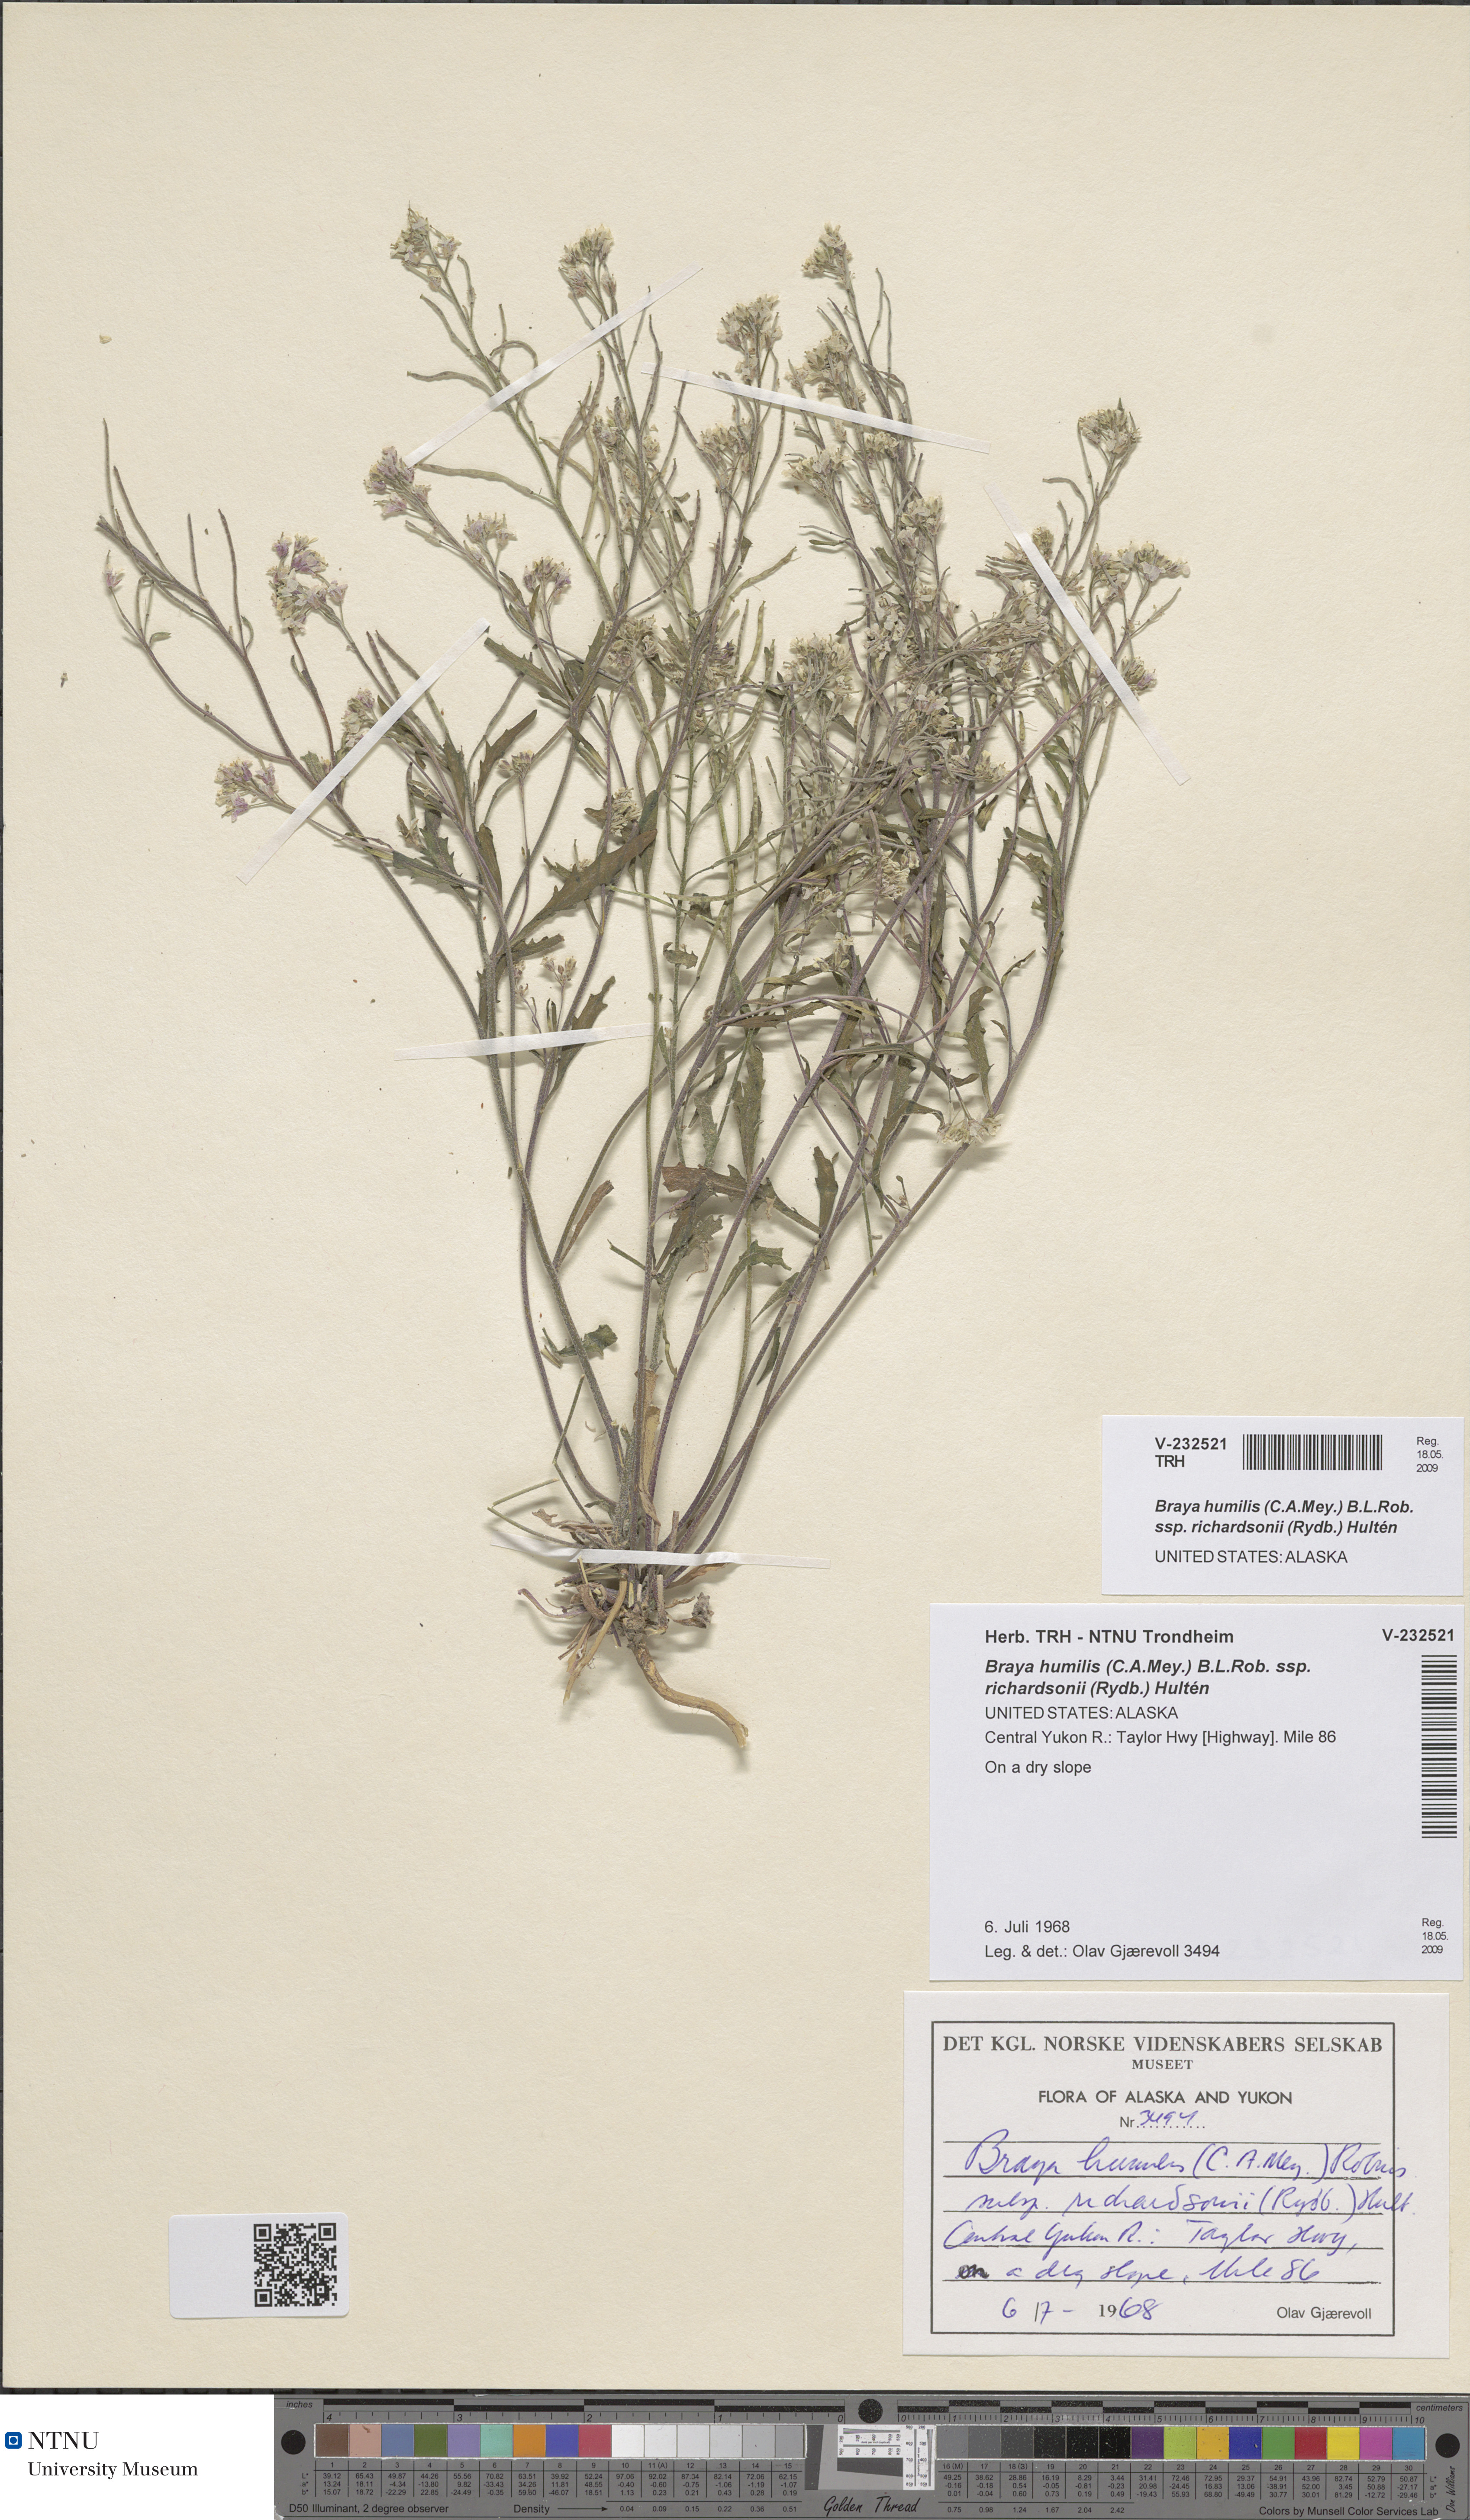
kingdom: Plantae
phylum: Tracheophyta
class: Magnoliopsida
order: Brassicales
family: Brassicaceae
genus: Braya
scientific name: Braya humilis
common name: Alpine northern rockcress
